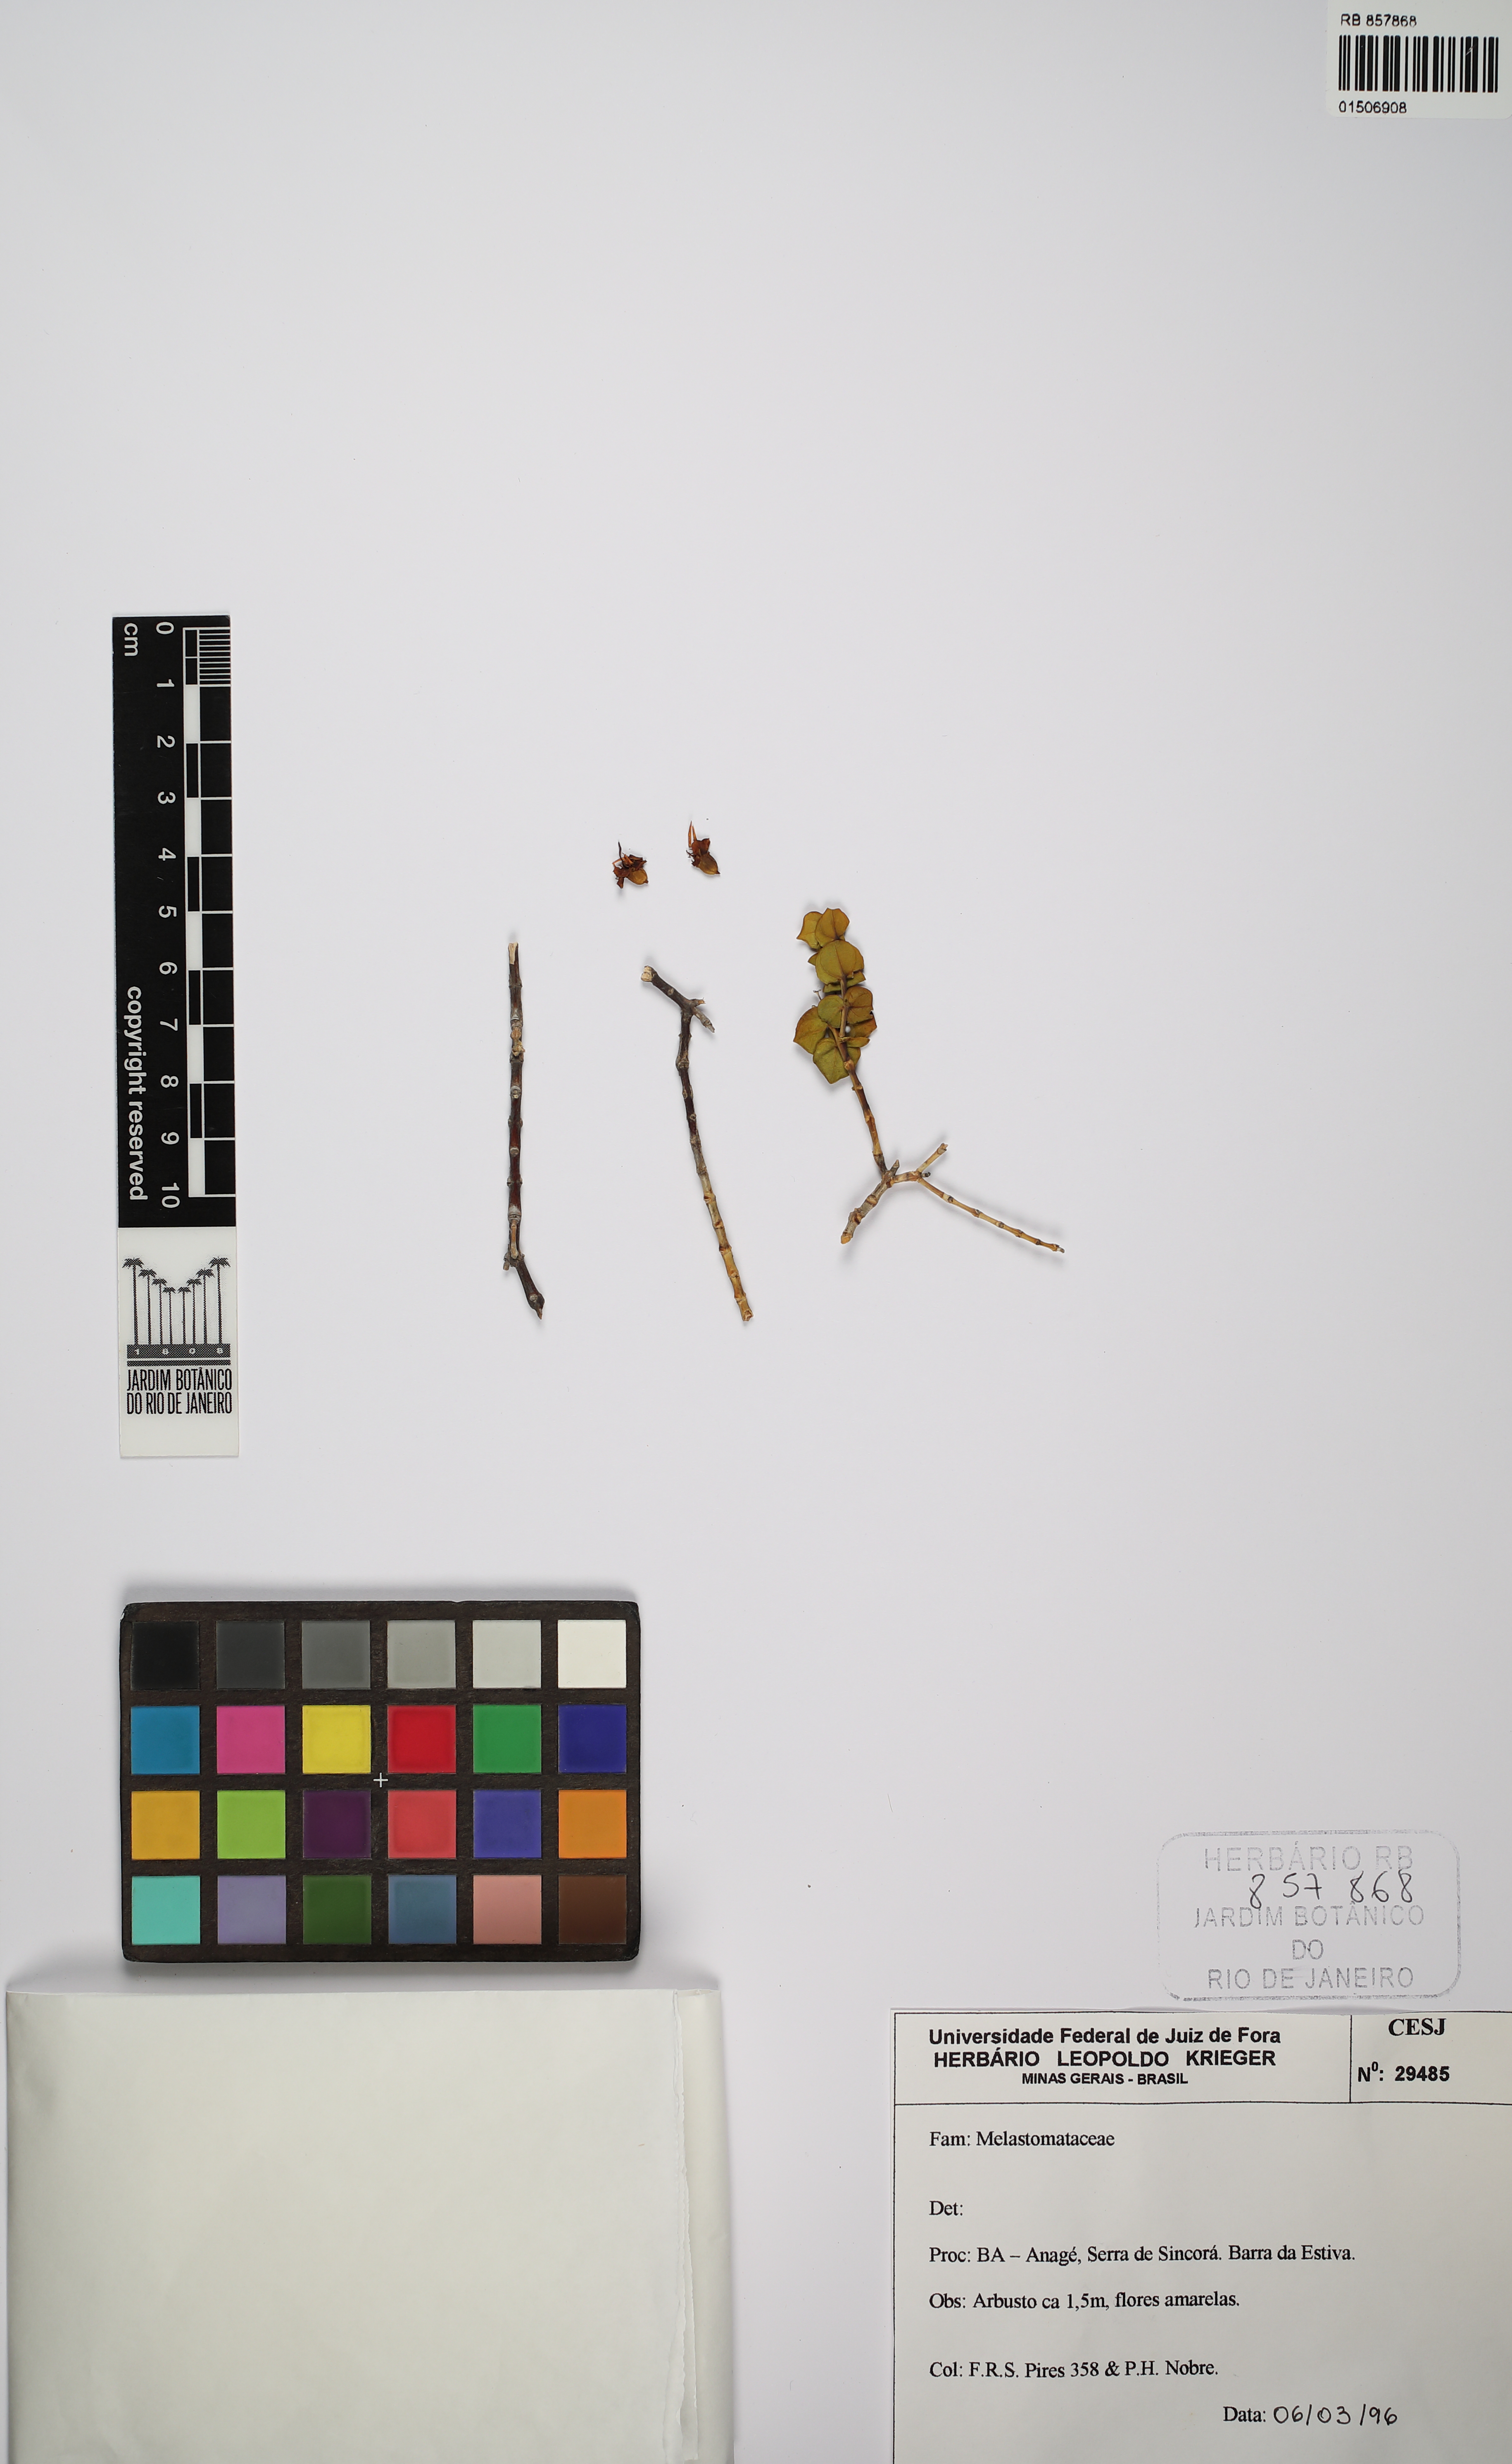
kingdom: Plantae
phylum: Tracheophyta
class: Magnoliopsida
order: Myrtales
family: Melastomataceae
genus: Cambessedesia
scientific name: Cambessedesia purpurata
